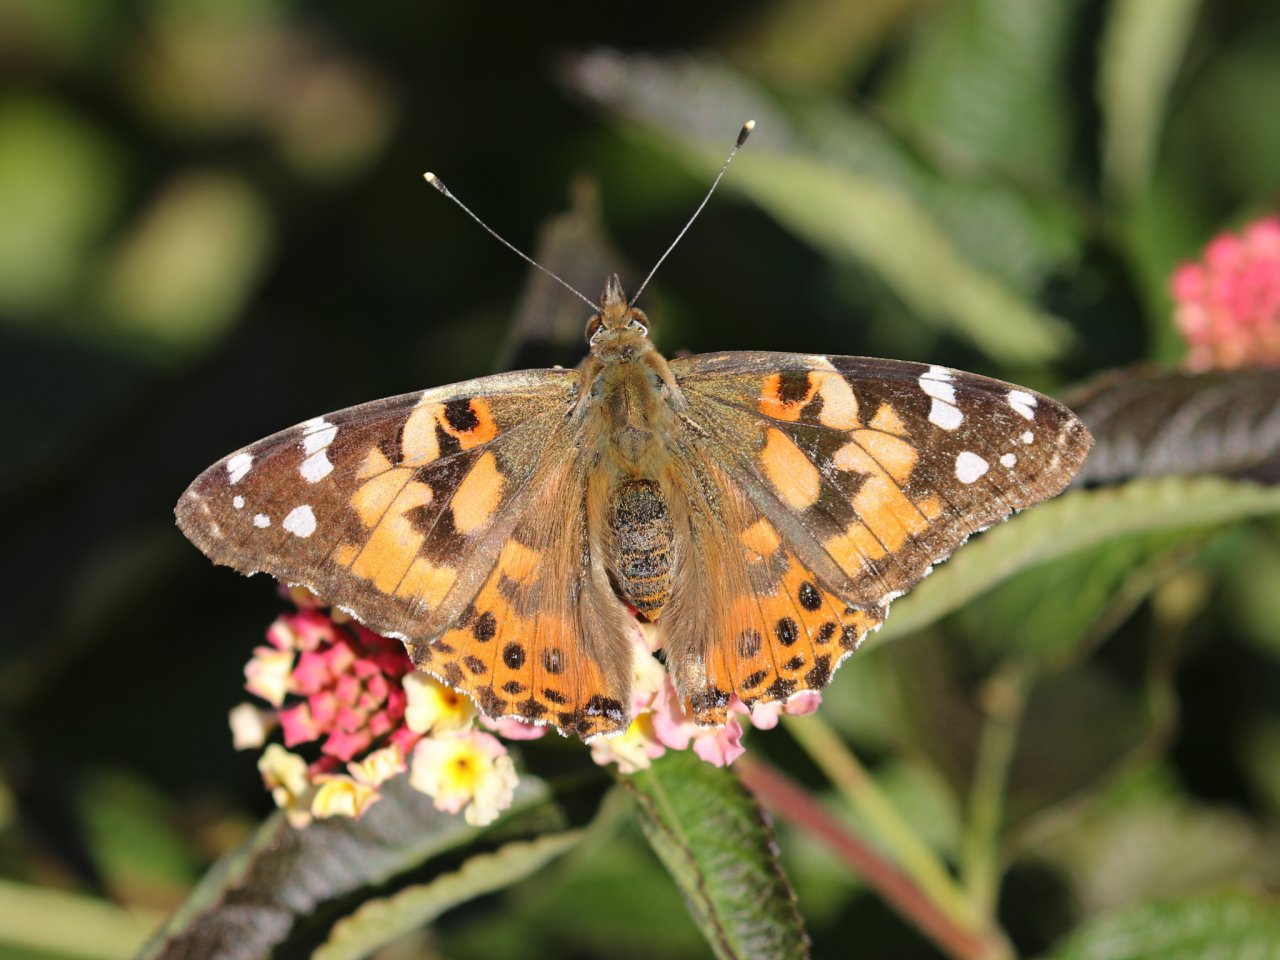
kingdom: Animalia
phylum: Arthropoda
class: Insecta
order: Lepidoptera
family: Nymphalidae
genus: Vanessa
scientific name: Vanessa cardui
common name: Painted Lady
